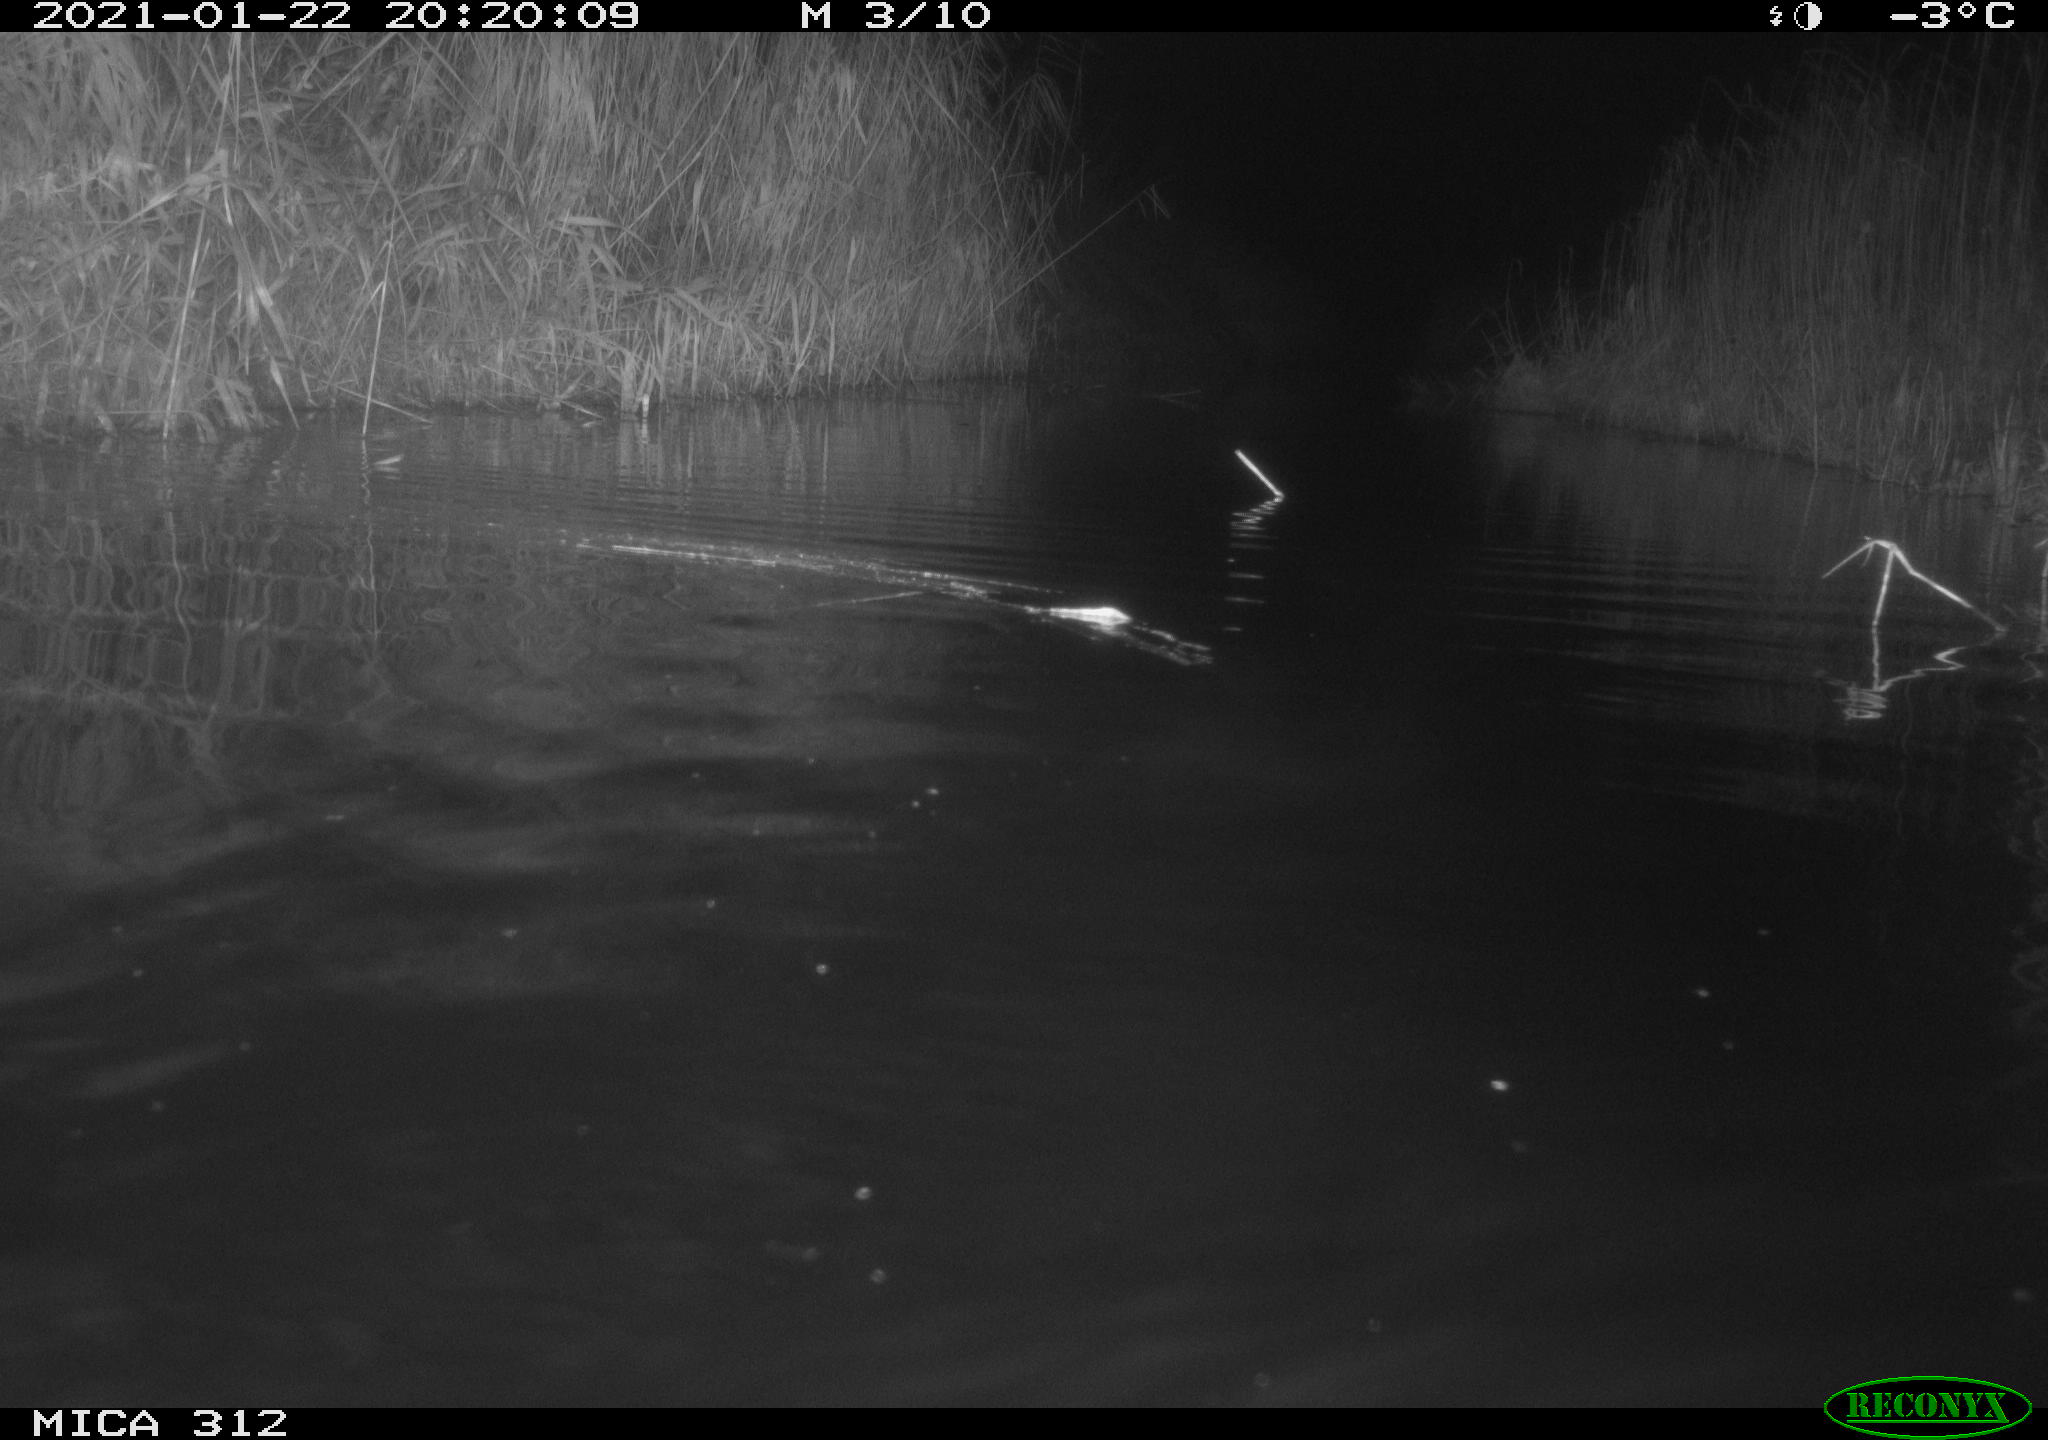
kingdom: Animalia
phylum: Chordata
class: Mammalia
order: Rodentia
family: Muridae
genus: Rattus
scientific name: Rattus norvegicus
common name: Brown rat
